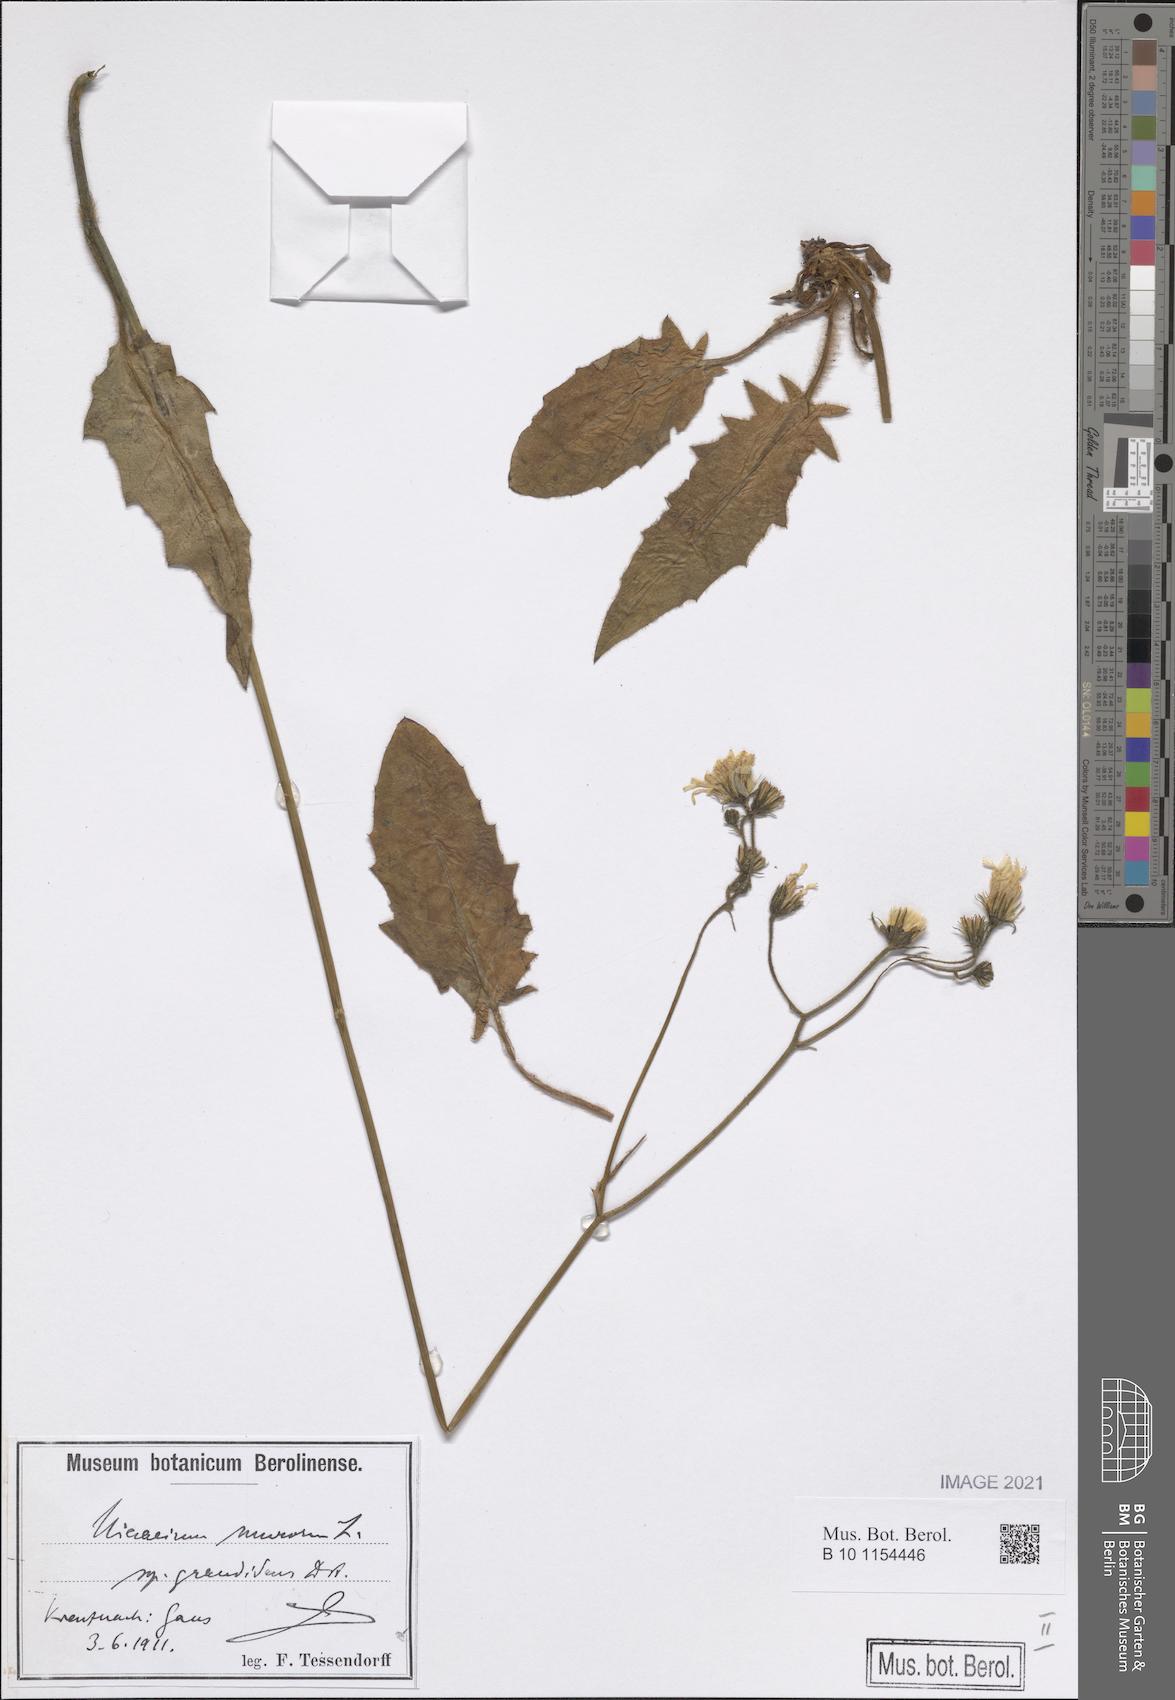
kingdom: Plantae
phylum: Tracheophyta
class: Magnoliopsida
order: Asterales
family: Asteraceae
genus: Hieracium
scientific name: Hieracium murorum
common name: Wall hawkweed
